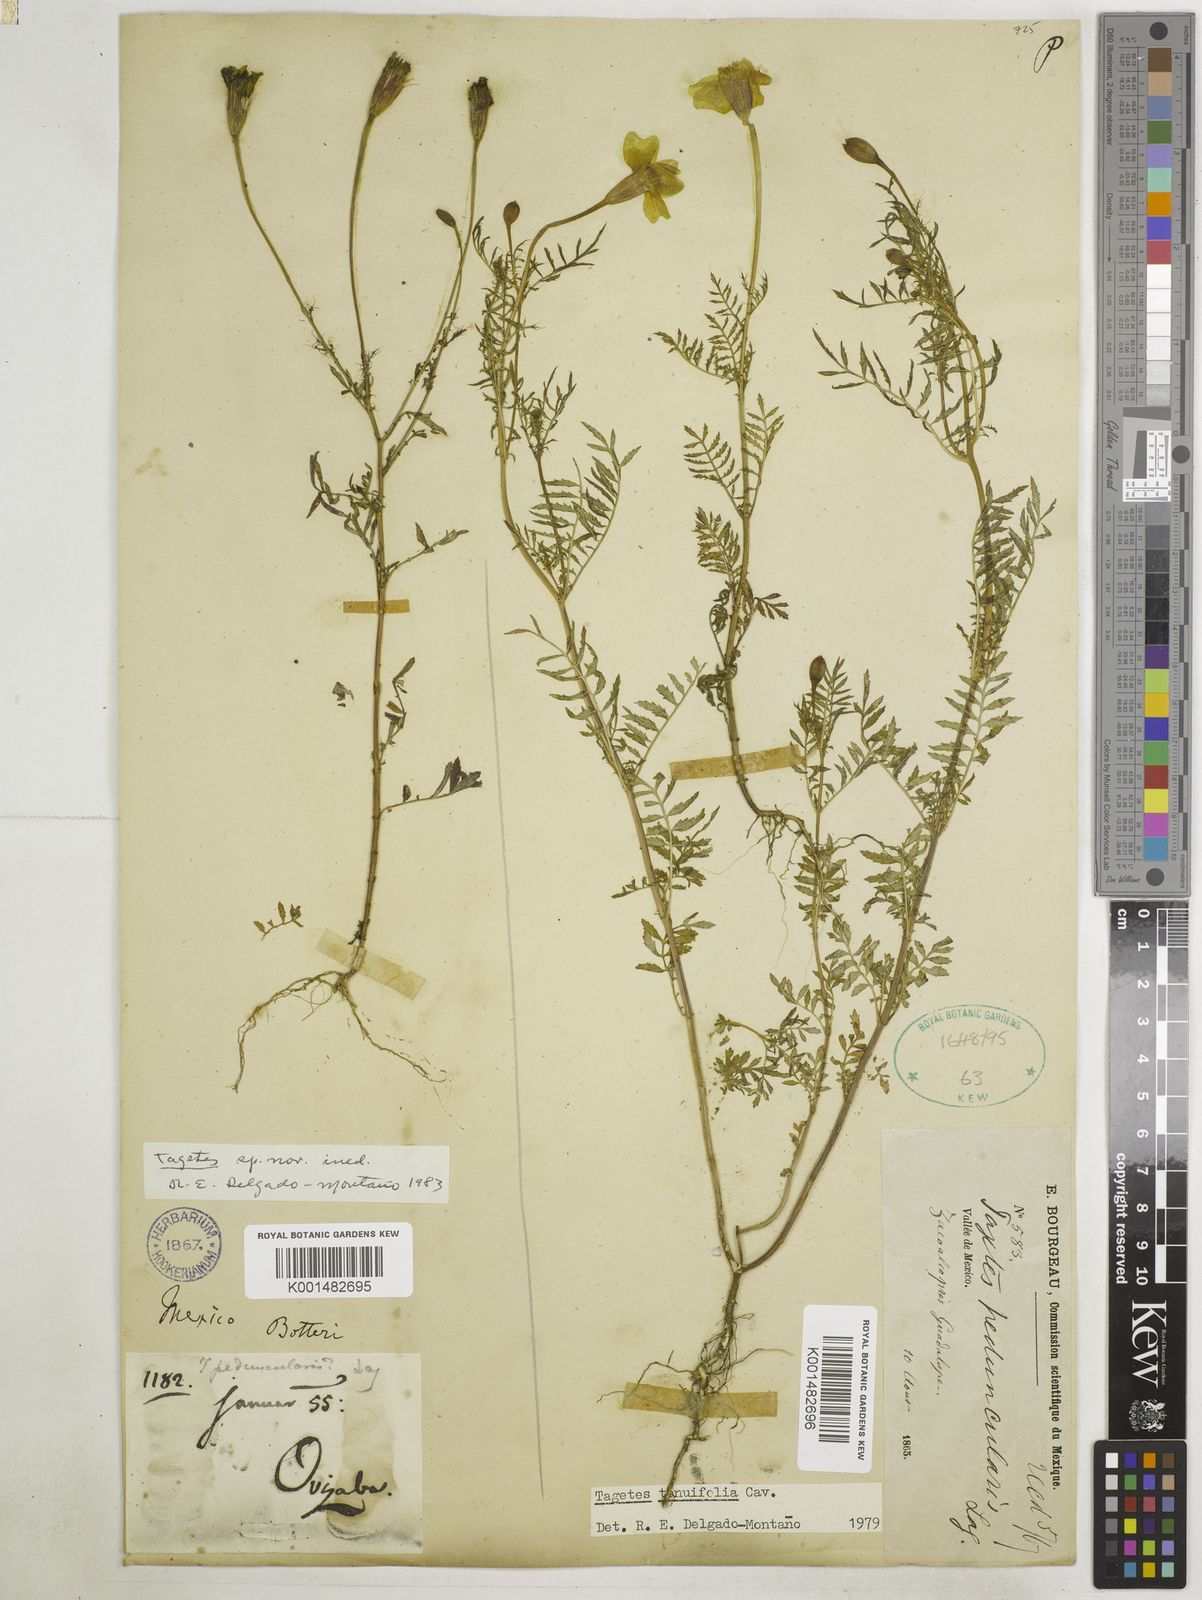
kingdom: Plantae
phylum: Tracheophyta
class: Magnoliopsida
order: Asterales
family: Asteraceae
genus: Tagetes
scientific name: Tagetes tenuifolia
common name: Signet marigold
